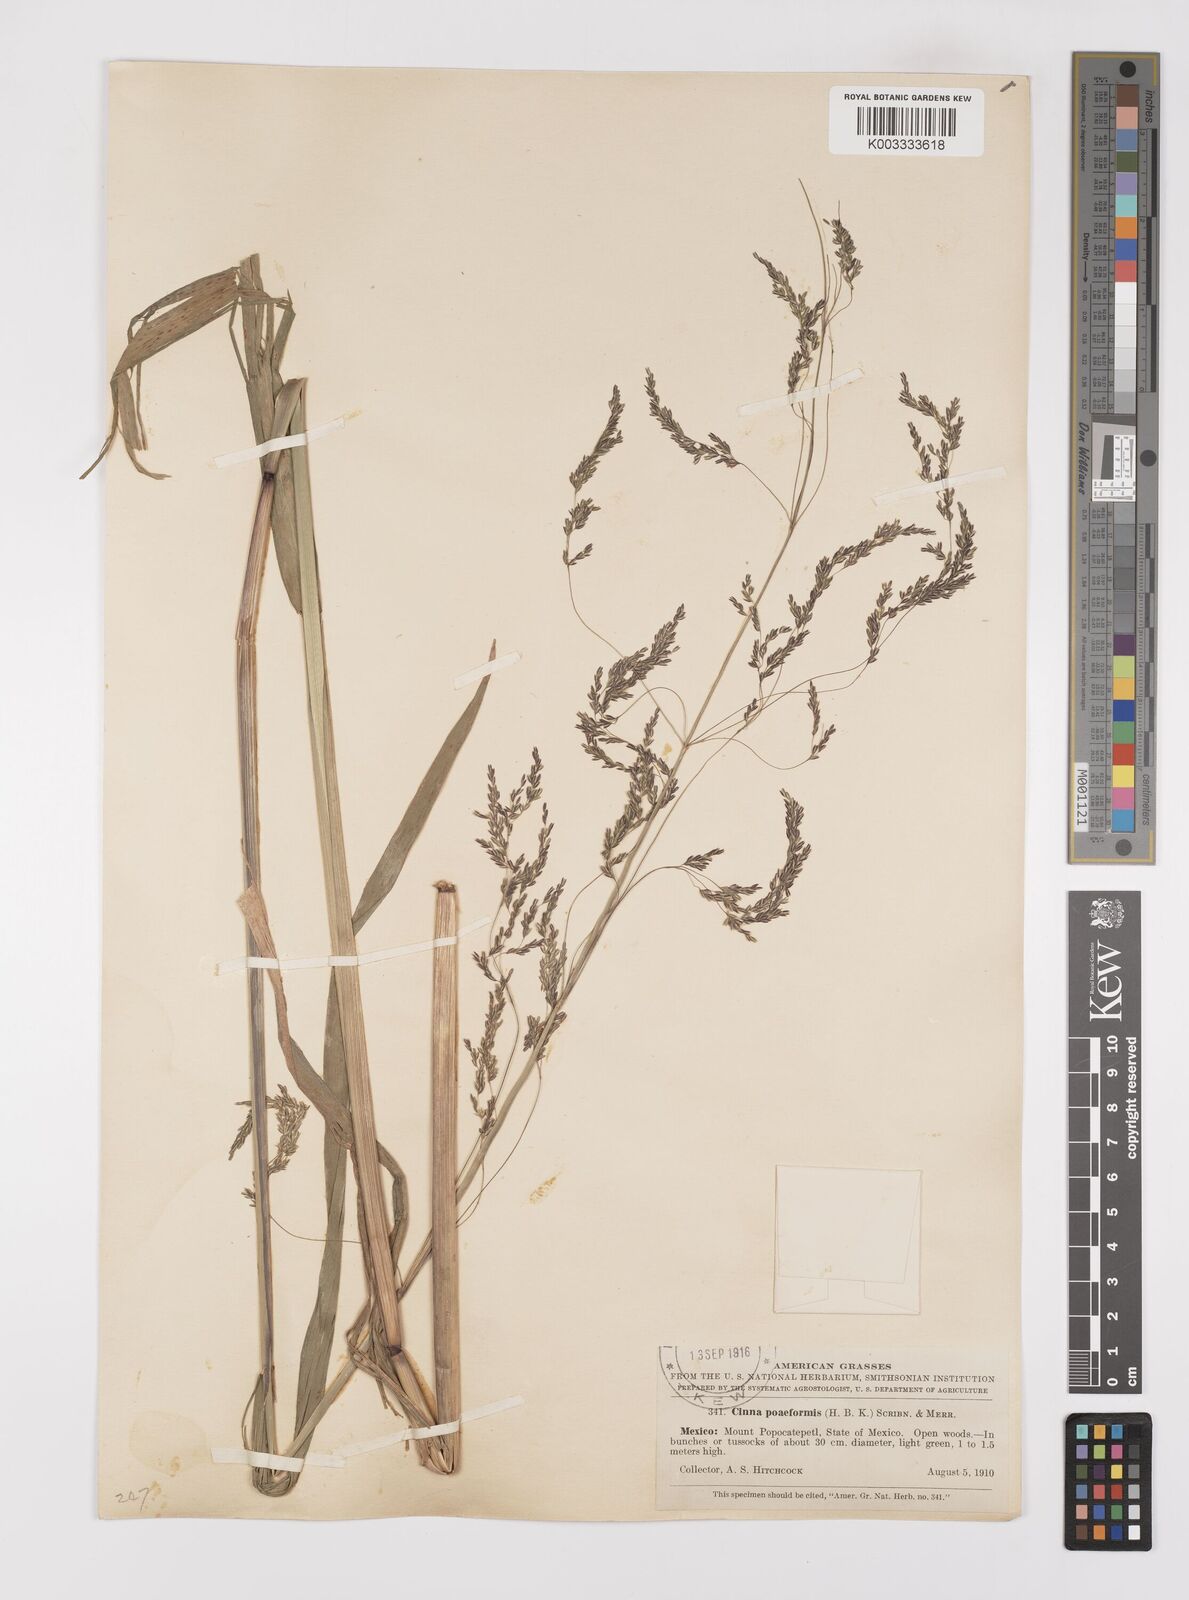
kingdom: Plantae
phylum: Tracheophyta
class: Liliopsida
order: Poales
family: Poaceae
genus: Cinnastrum
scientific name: Cinnastrum poiforme
